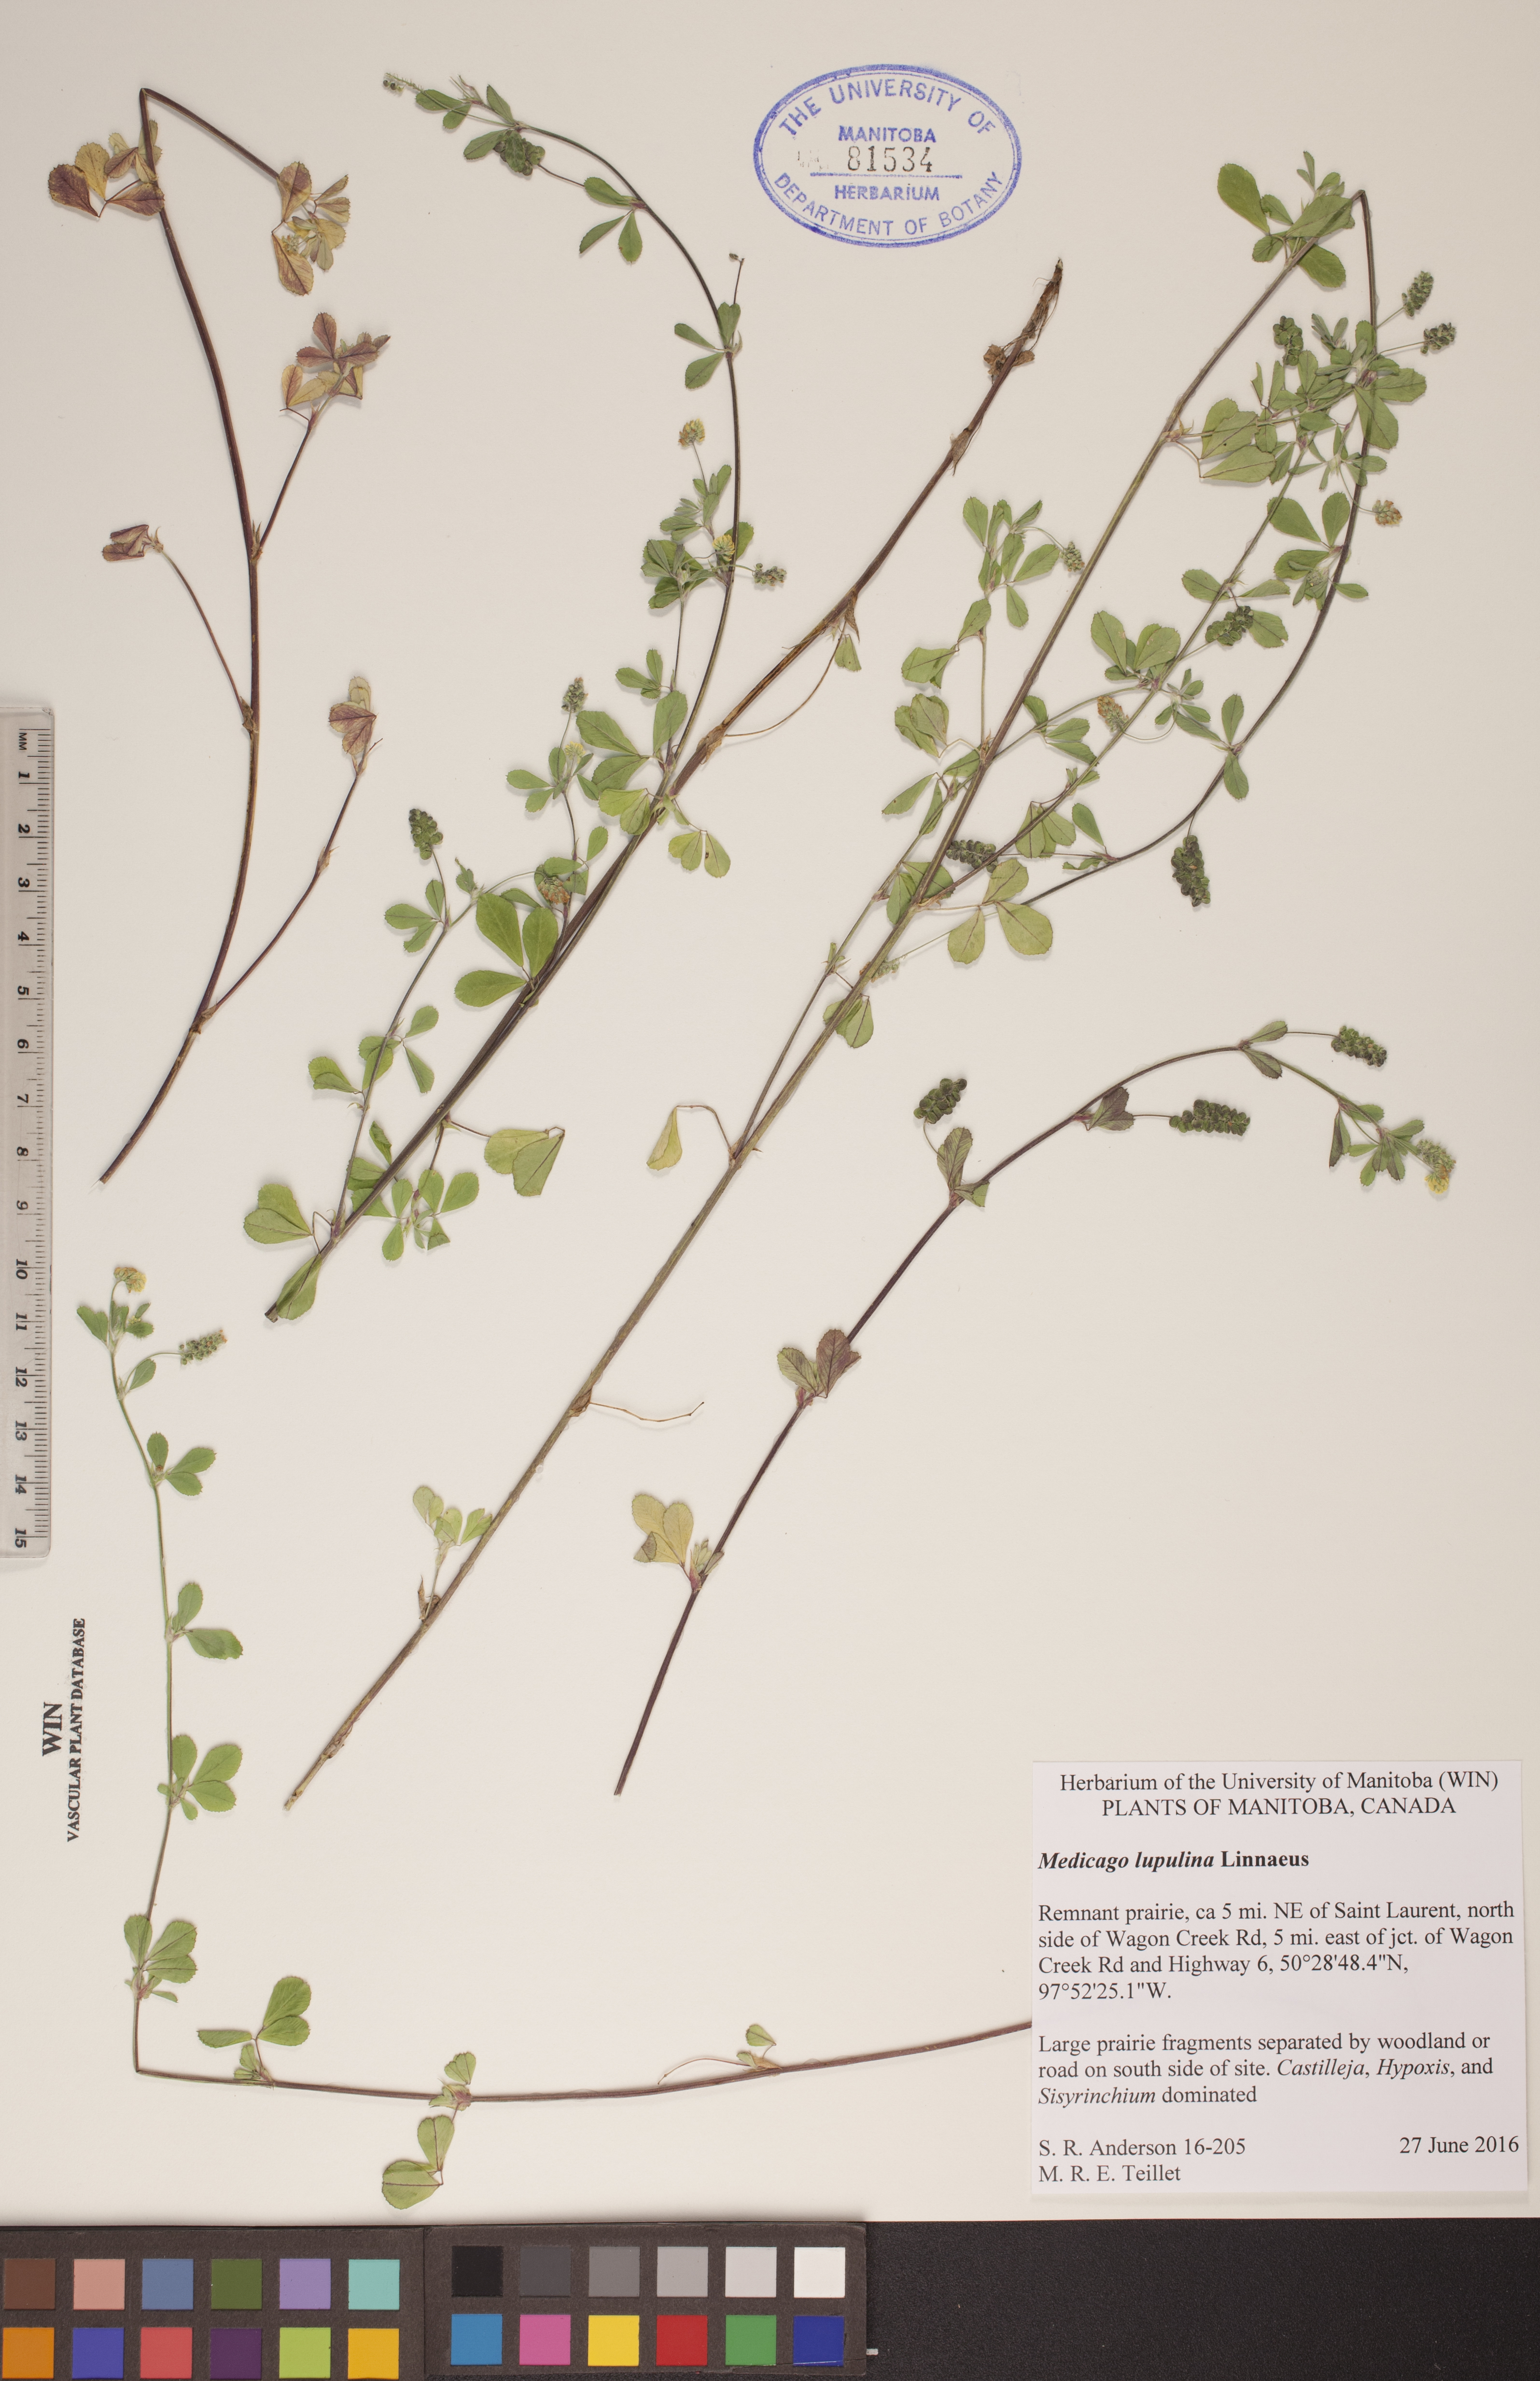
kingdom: Plantae
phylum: Tracheophyta
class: Magnoliopsida
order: Fabales
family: Fabaceae
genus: Medicago
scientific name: Medicago lupulina
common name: Black medick
